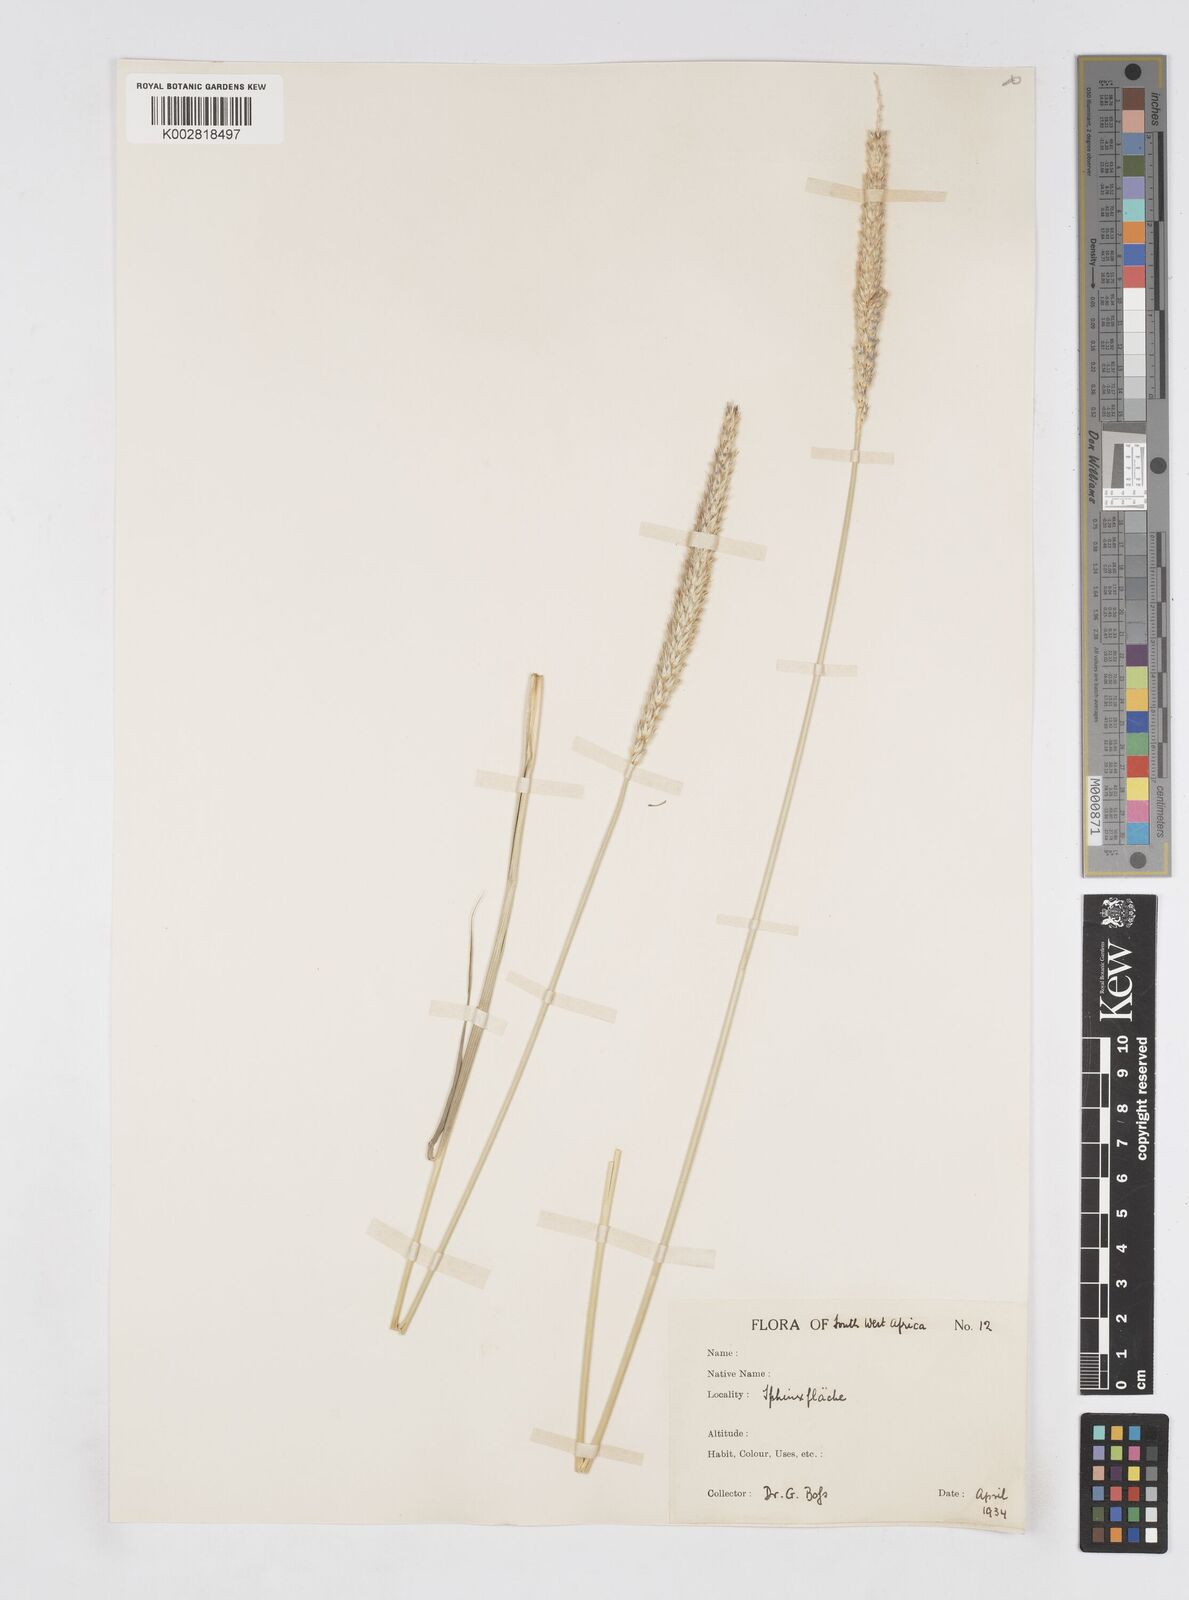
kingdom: Plantae
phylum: Tracheophyta
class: Liliopsida
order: Poales
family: Poaceae
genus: Anthephora
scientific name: Anthephora pubescens
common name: Wool grass
